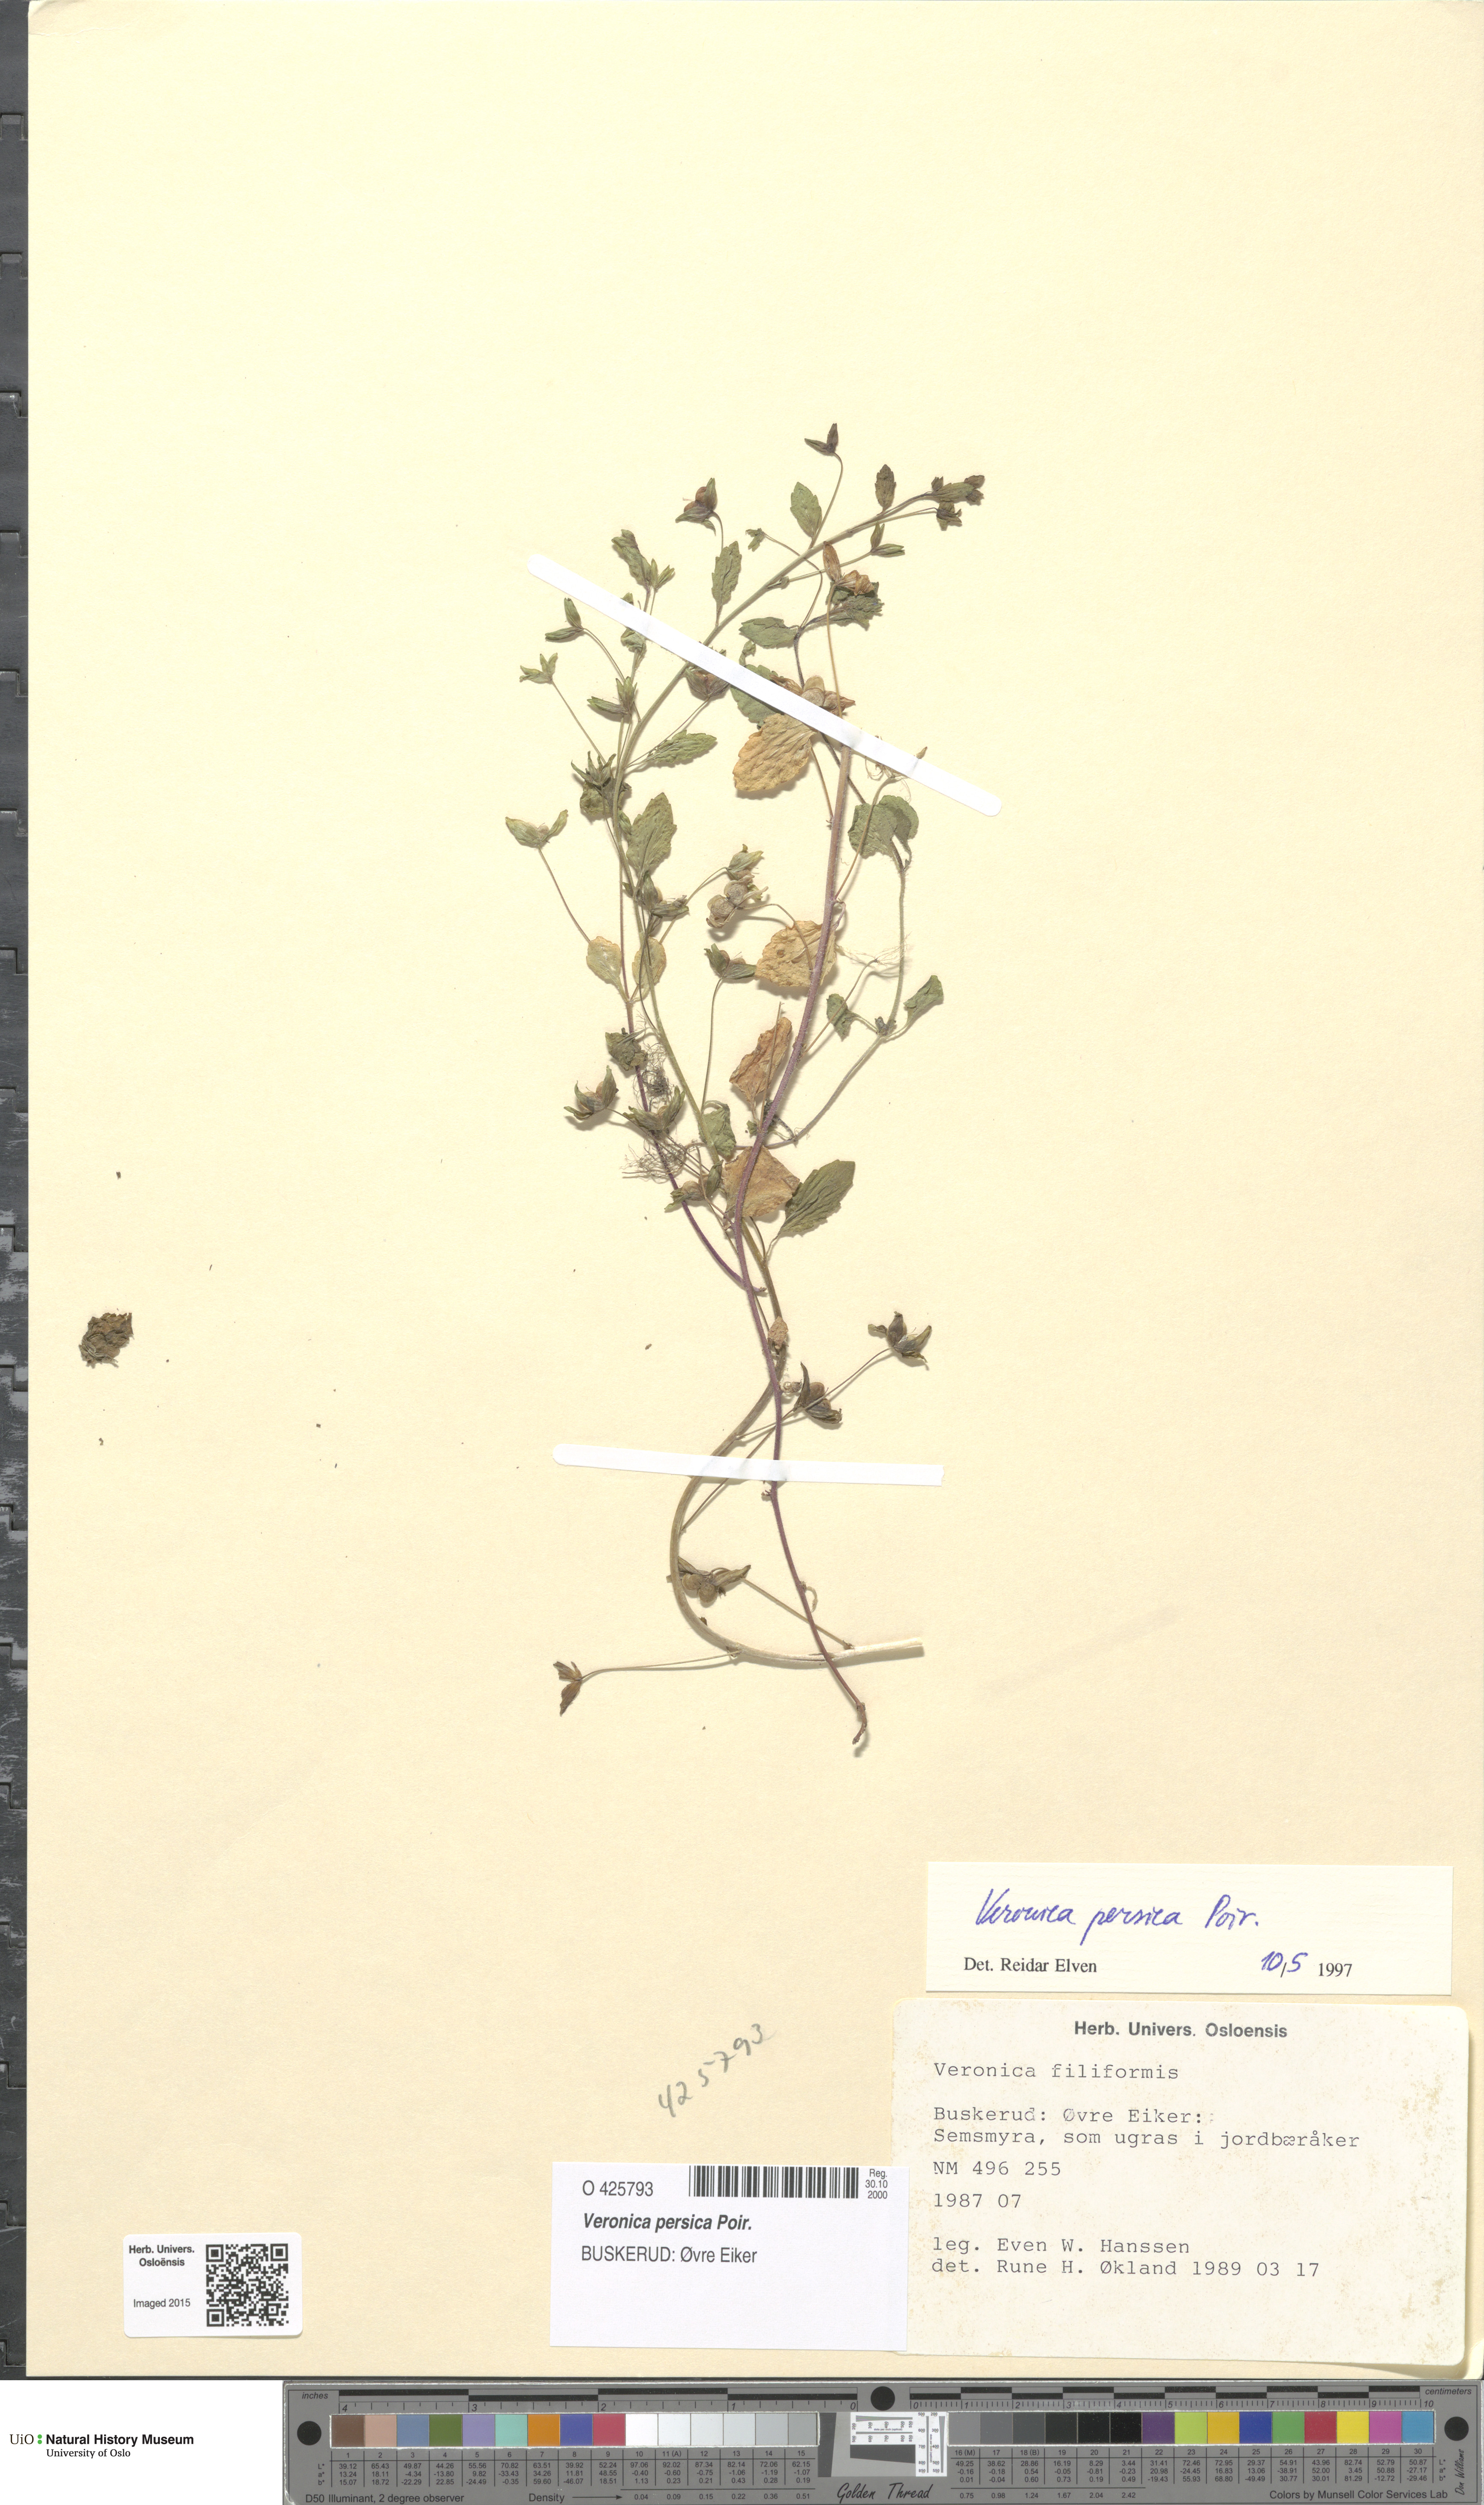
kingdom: Plantae
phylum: Tracheophyta
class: Magnoliopsida
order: Lamiales
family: Plantaginaceae
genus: Veronica
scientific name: Veronica persica
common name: Common field-speedwell
